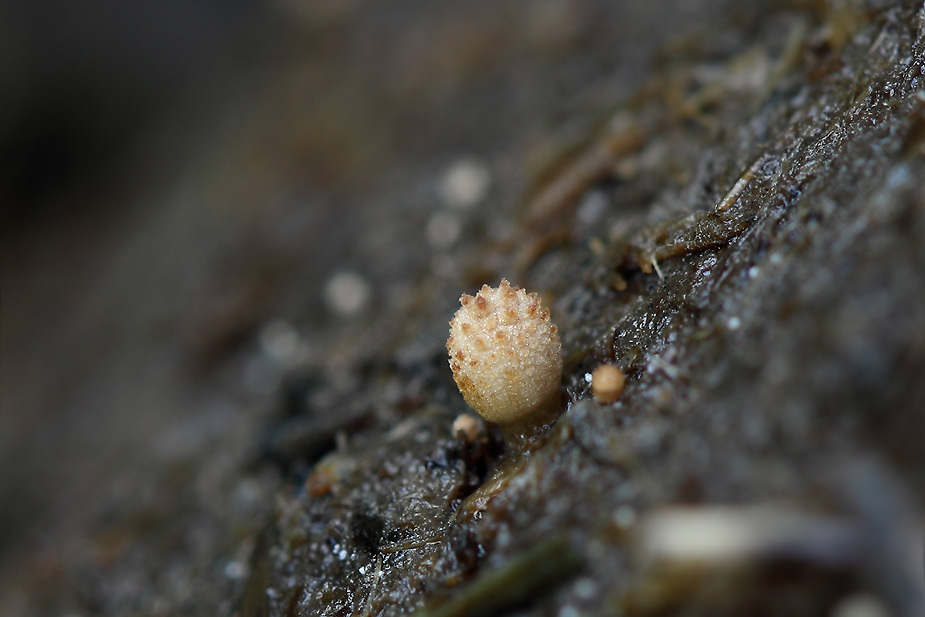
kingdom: Fungi
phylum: Basidiomycota
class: Agaricomycetes
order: Agaricales
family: Psathyrellaceae
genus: Narcissea
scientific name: Narcissea ephemeroides
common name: ring-blækhat
